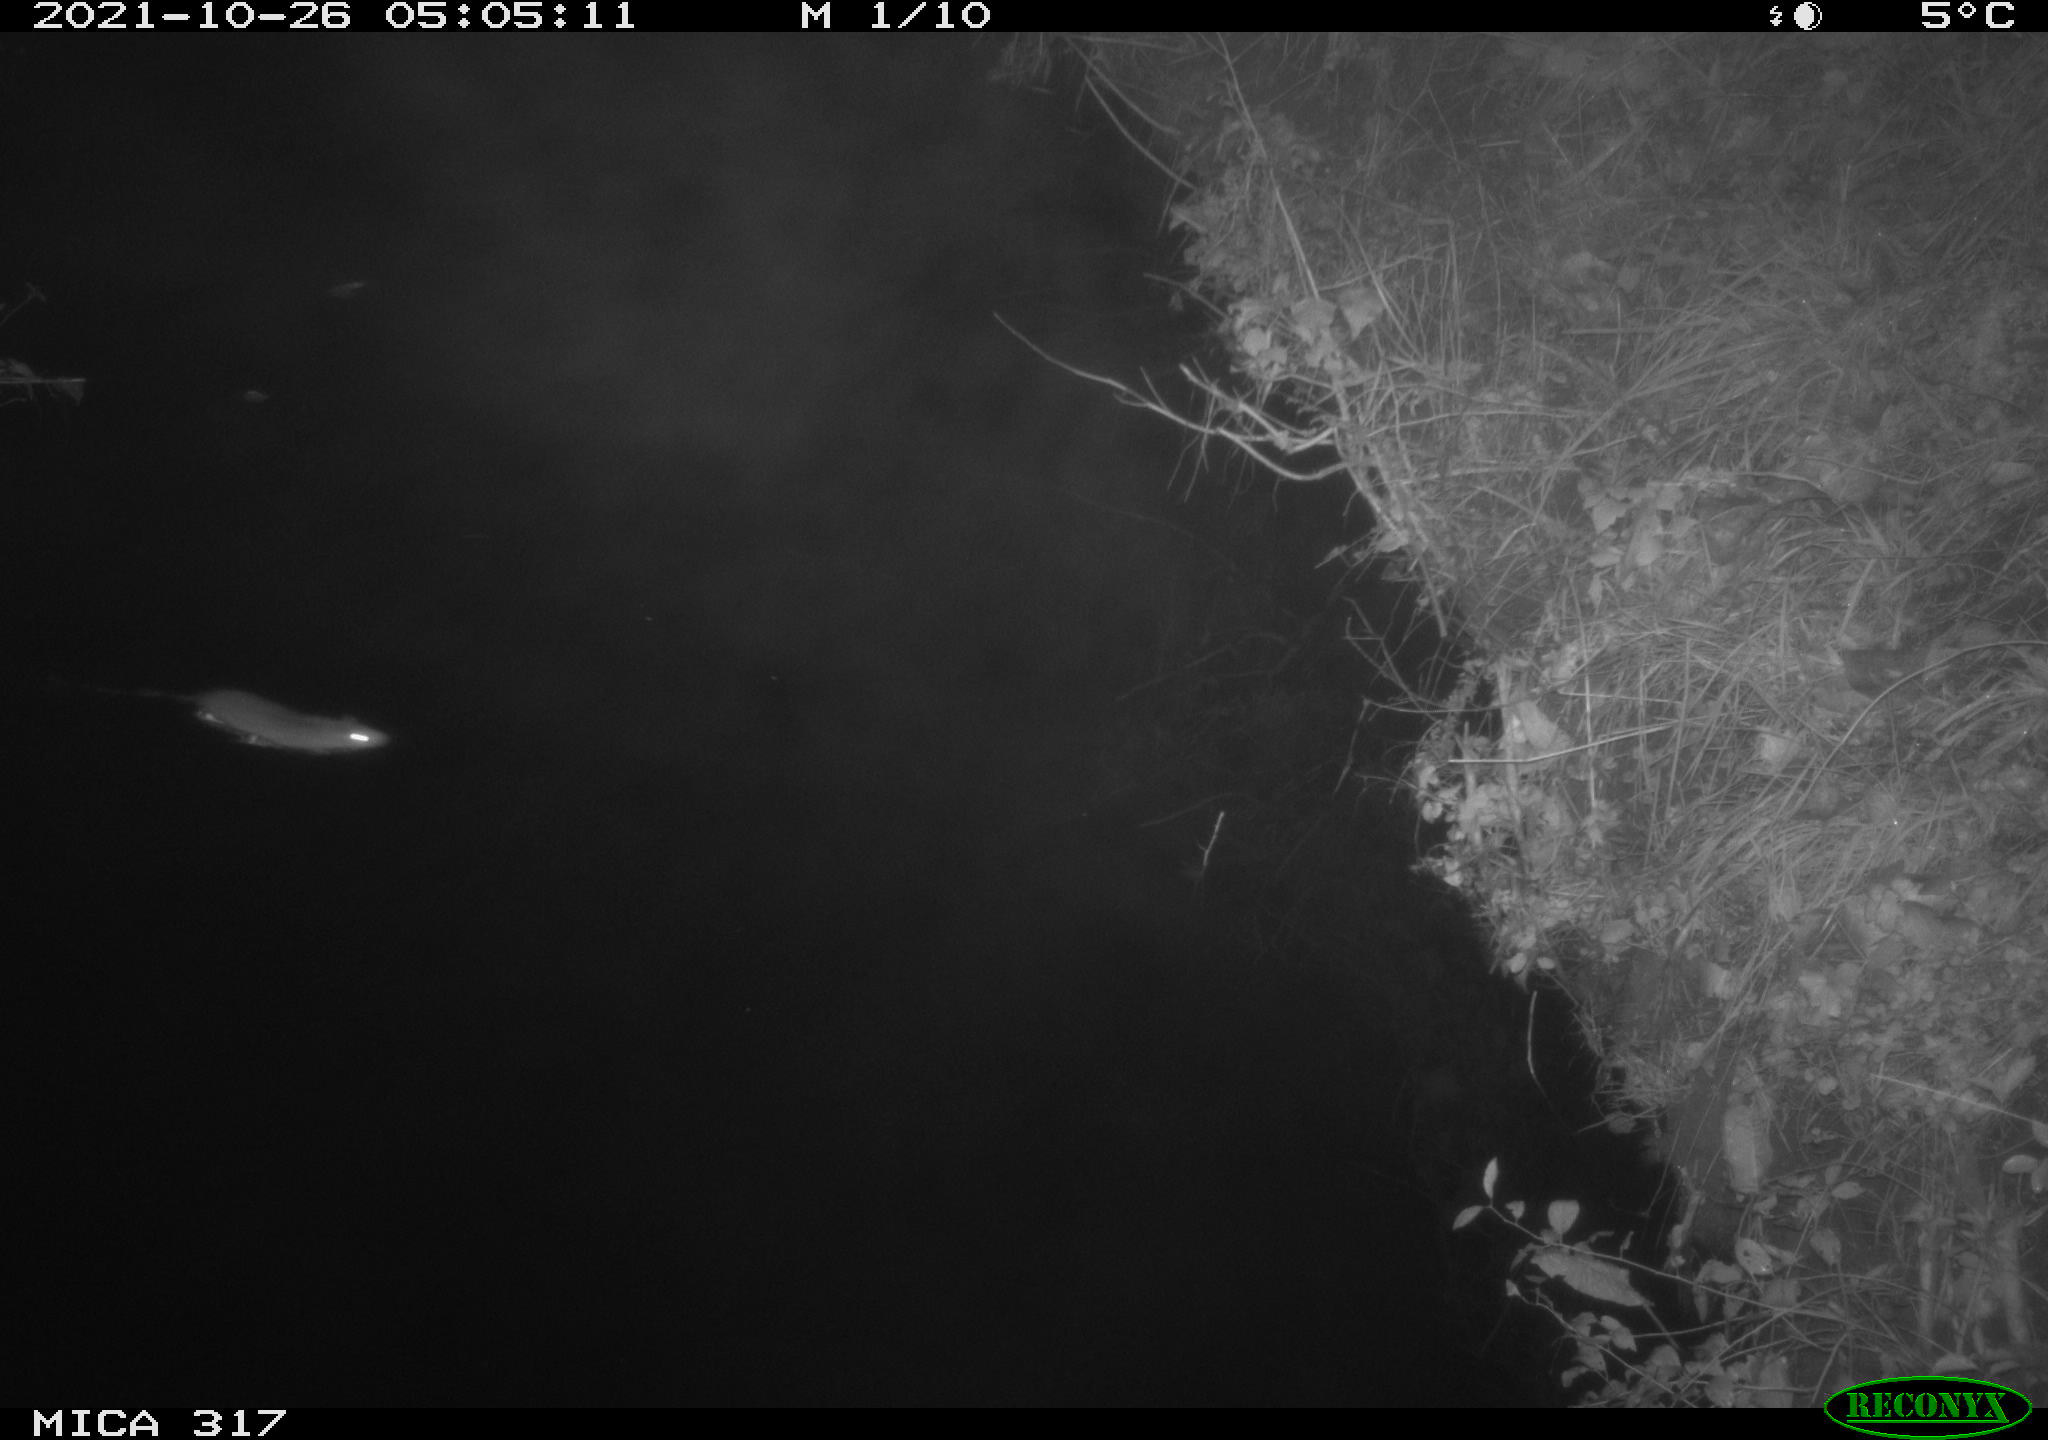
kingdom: Animalia
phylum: Chordata
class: Mammalia
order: Rodentia
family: Muridae
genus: Rattus
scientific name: Rattus norvegicus
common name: Brown rat
